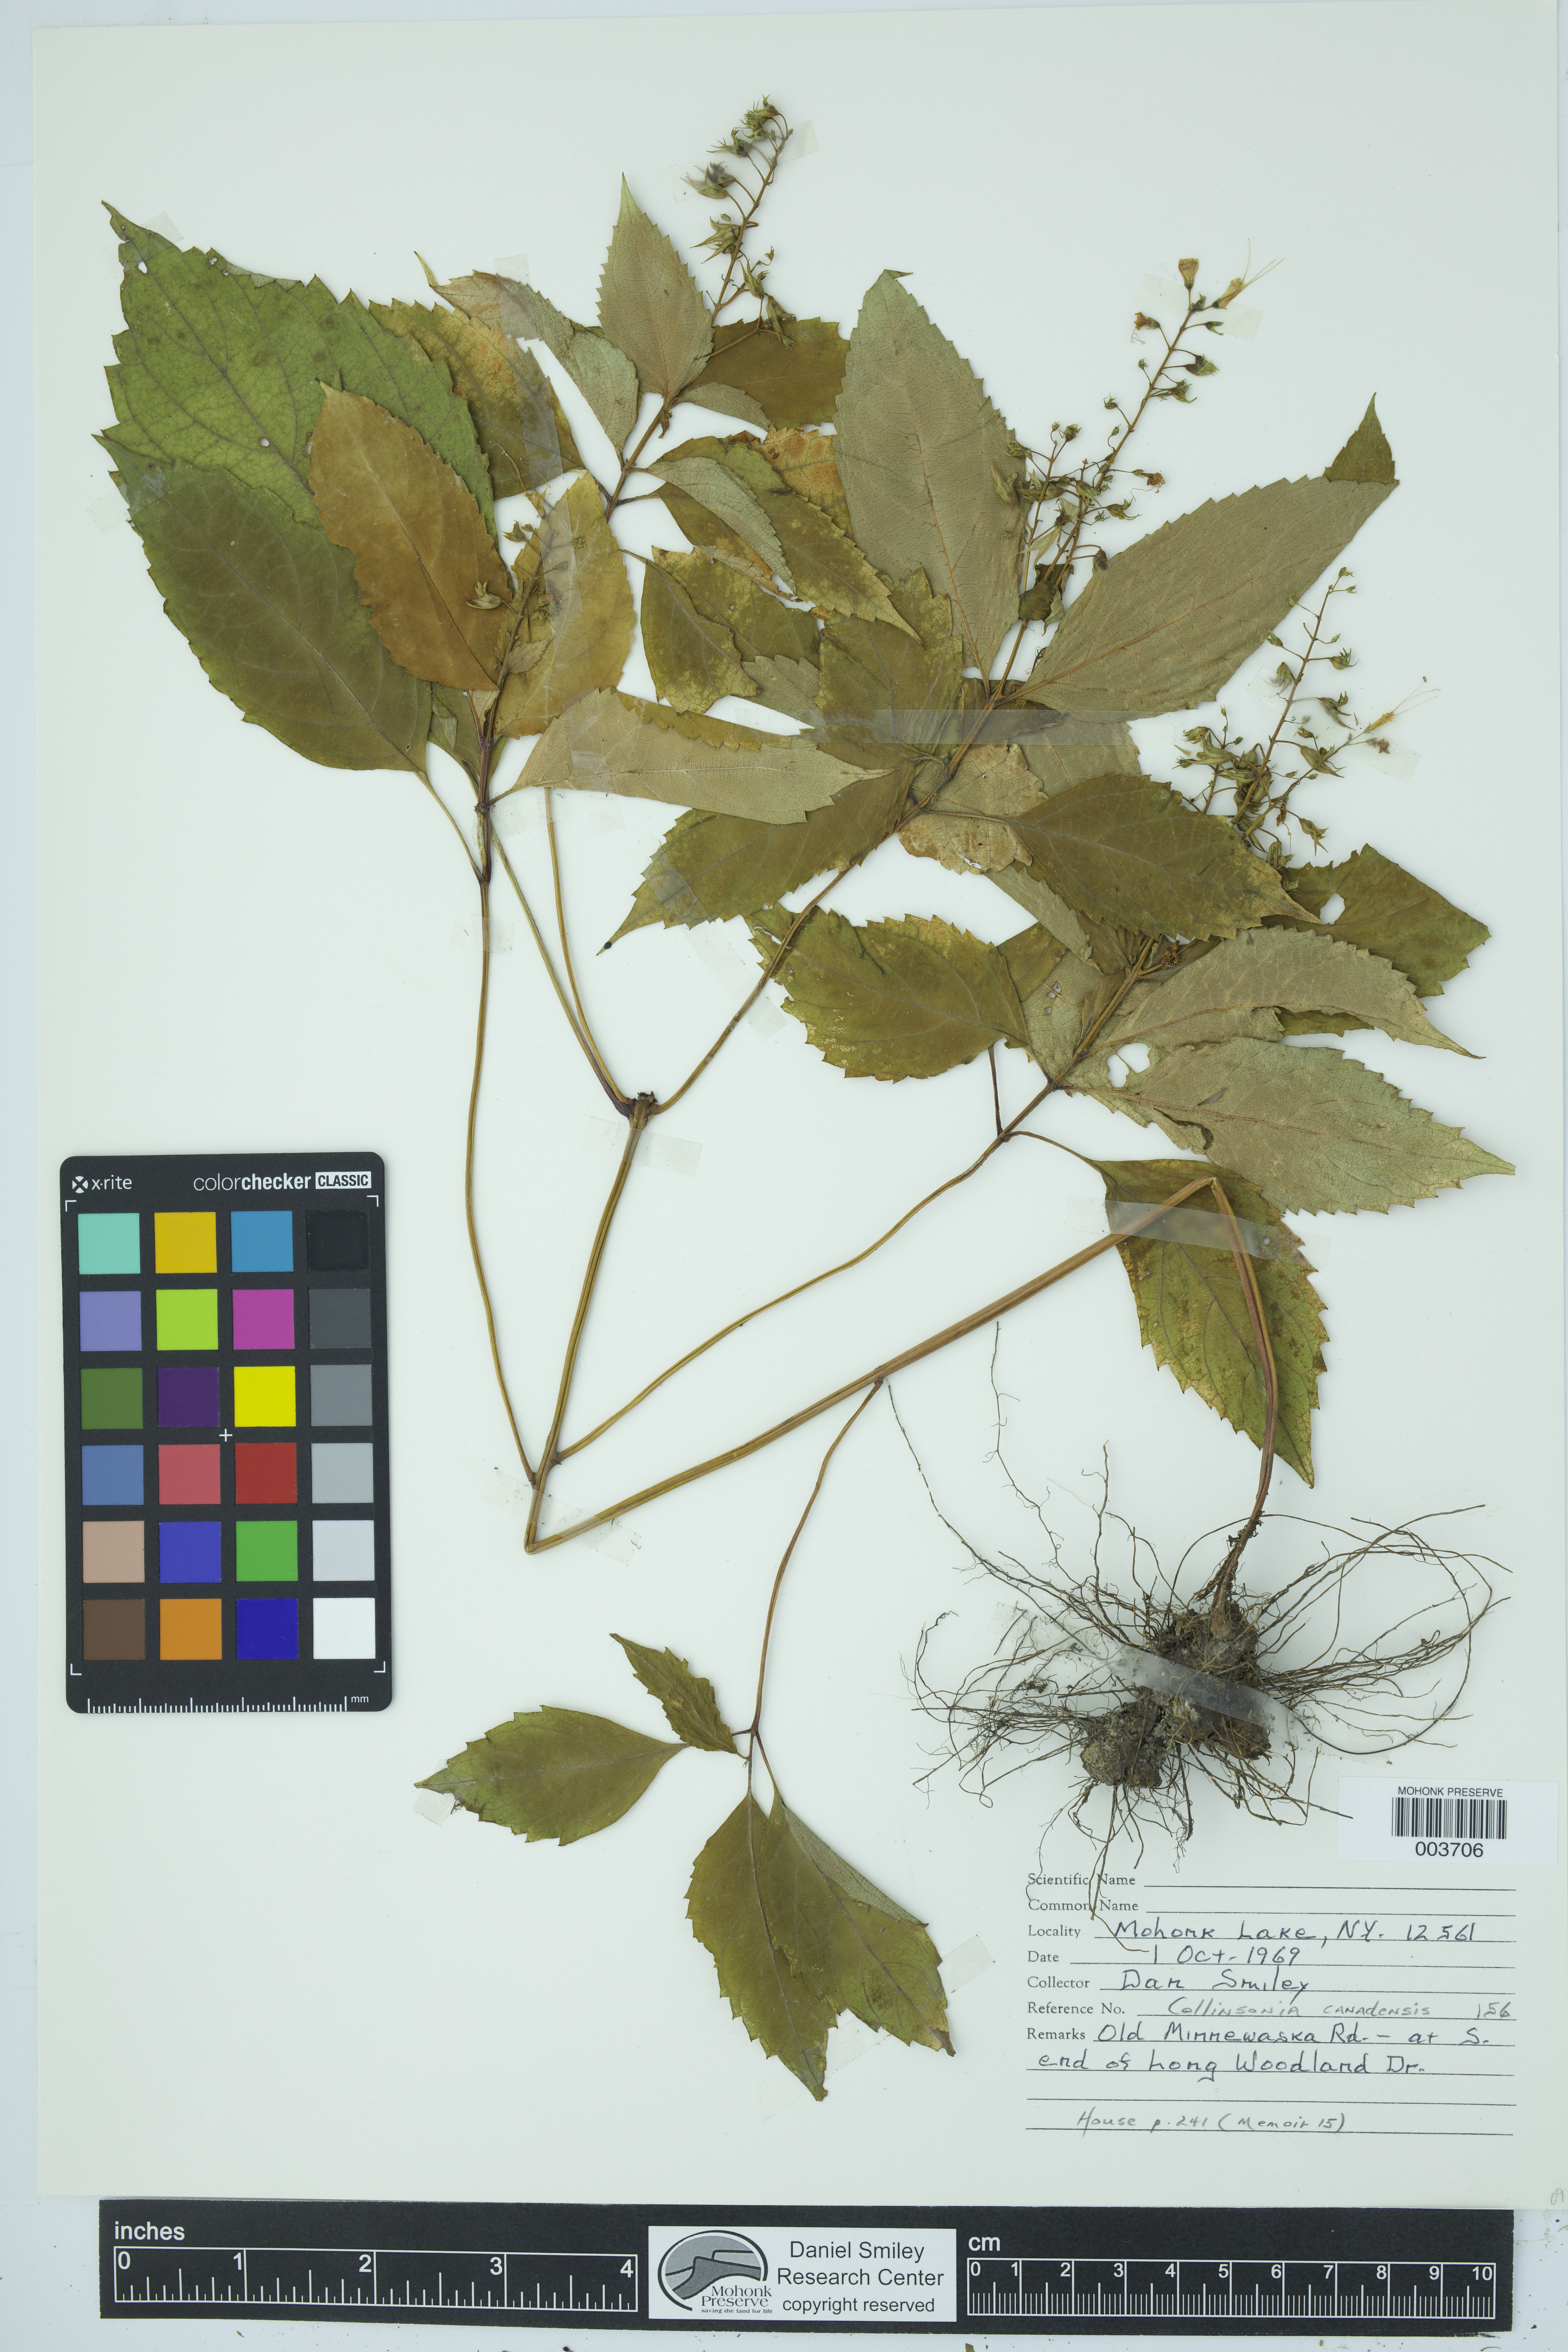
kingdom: Plantae
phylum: Tracheophyta
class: Magnoliopsida
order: Lamiales
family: Lamiaceae
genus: Collinsonia
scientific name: Collinsonia canadensis
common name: Northern horsebalm
